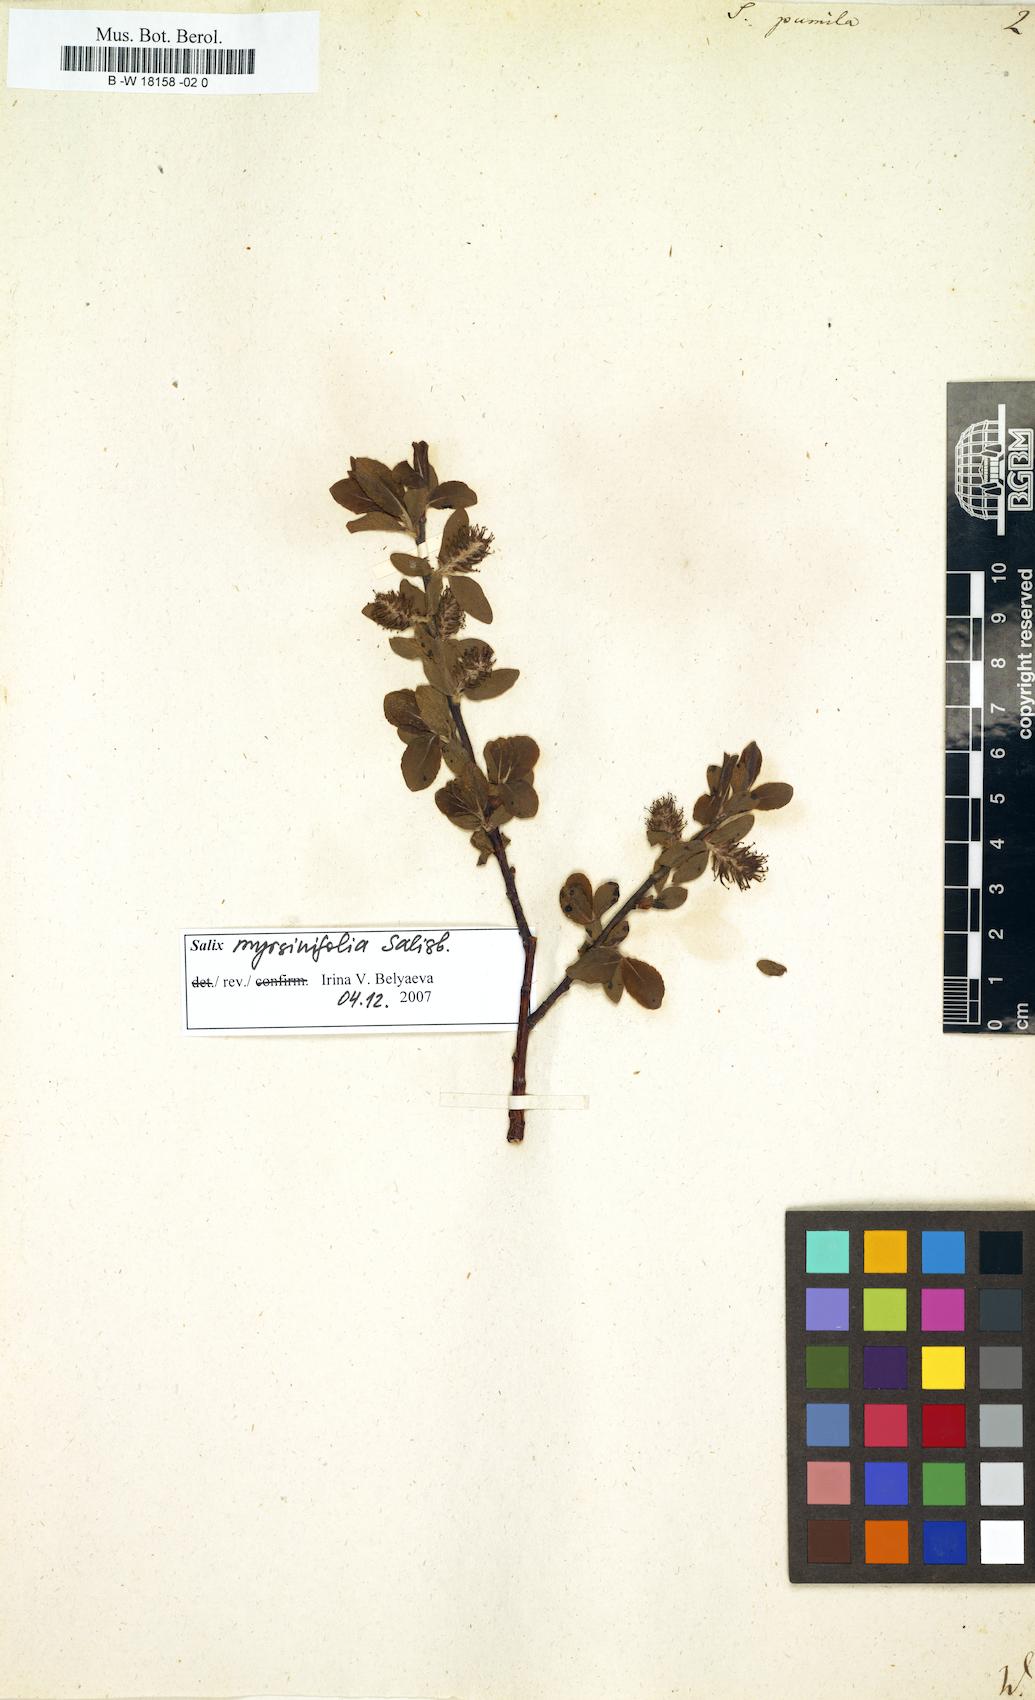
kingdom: Plantae
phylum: Tracheophyta
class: Magnoliopsida
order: Malpighiales
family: Salicaceae
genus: Salix
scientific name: Salix herbacea
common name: Dwarf willow
